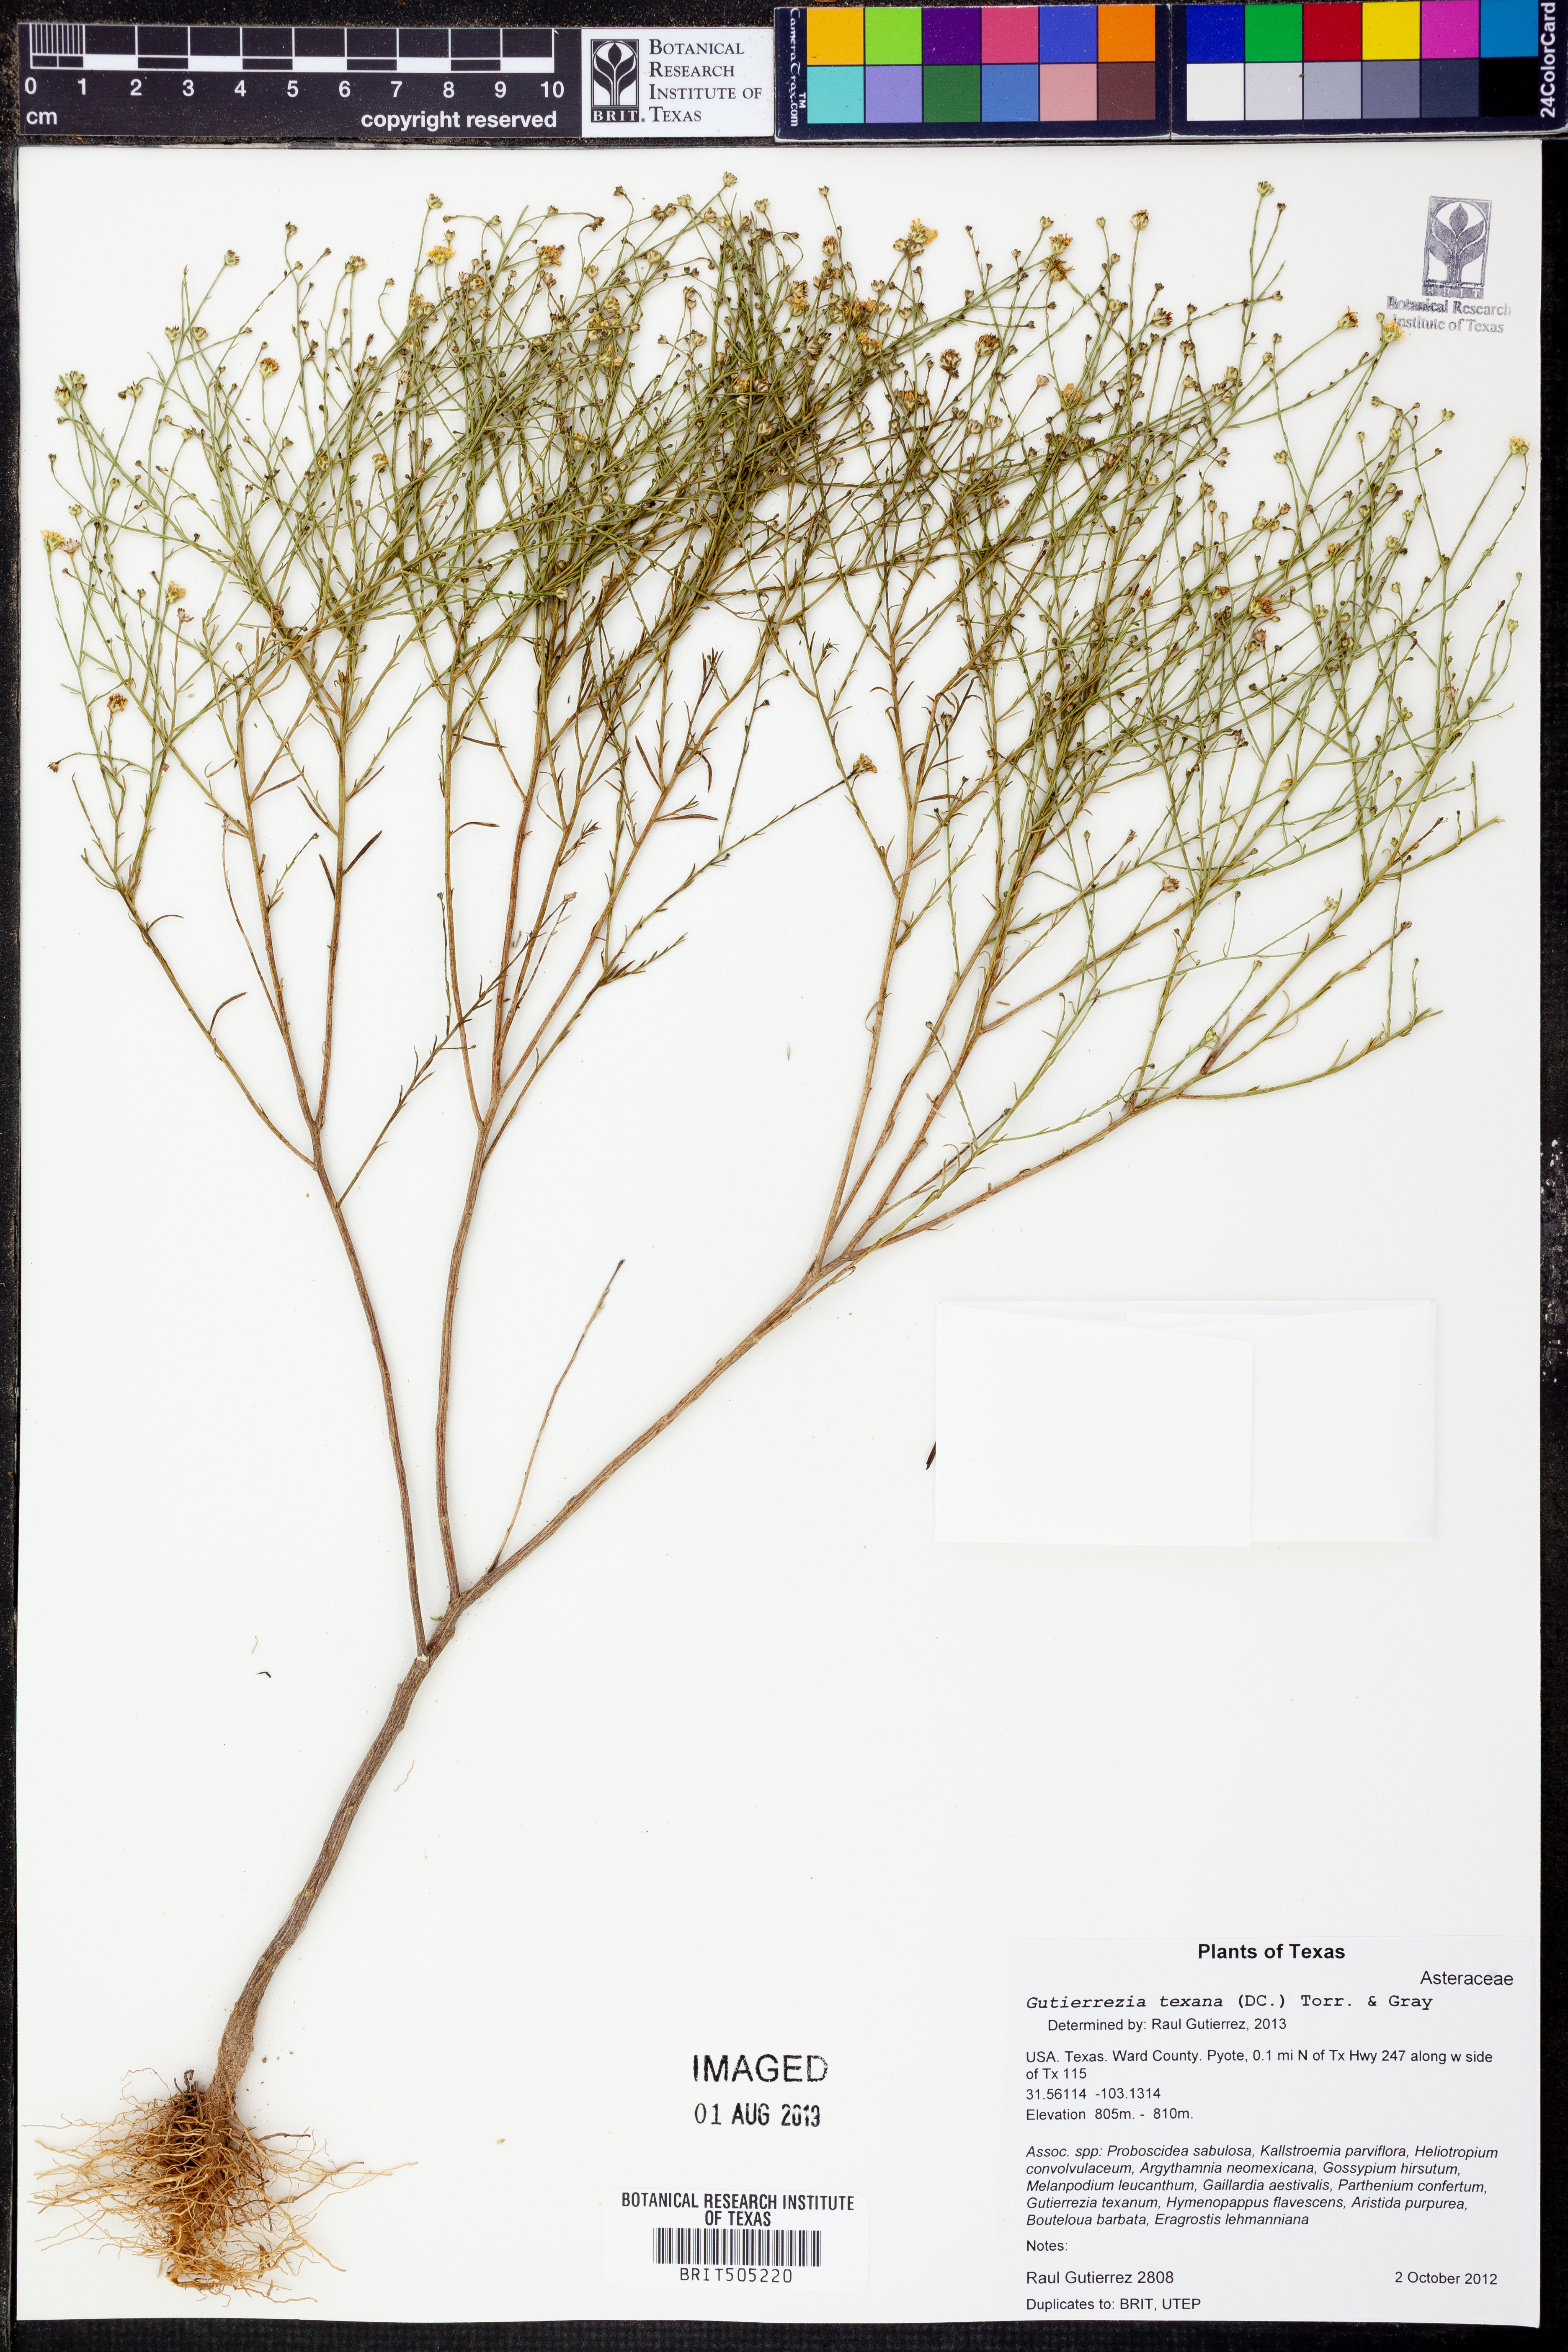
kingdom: Plantae
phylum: Tracheophyta
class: Magnoliopsida
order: Asterales
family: Asteraceae
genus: Gutierrezia
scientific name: Gutierrezia texana
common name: Texas snakeweed
